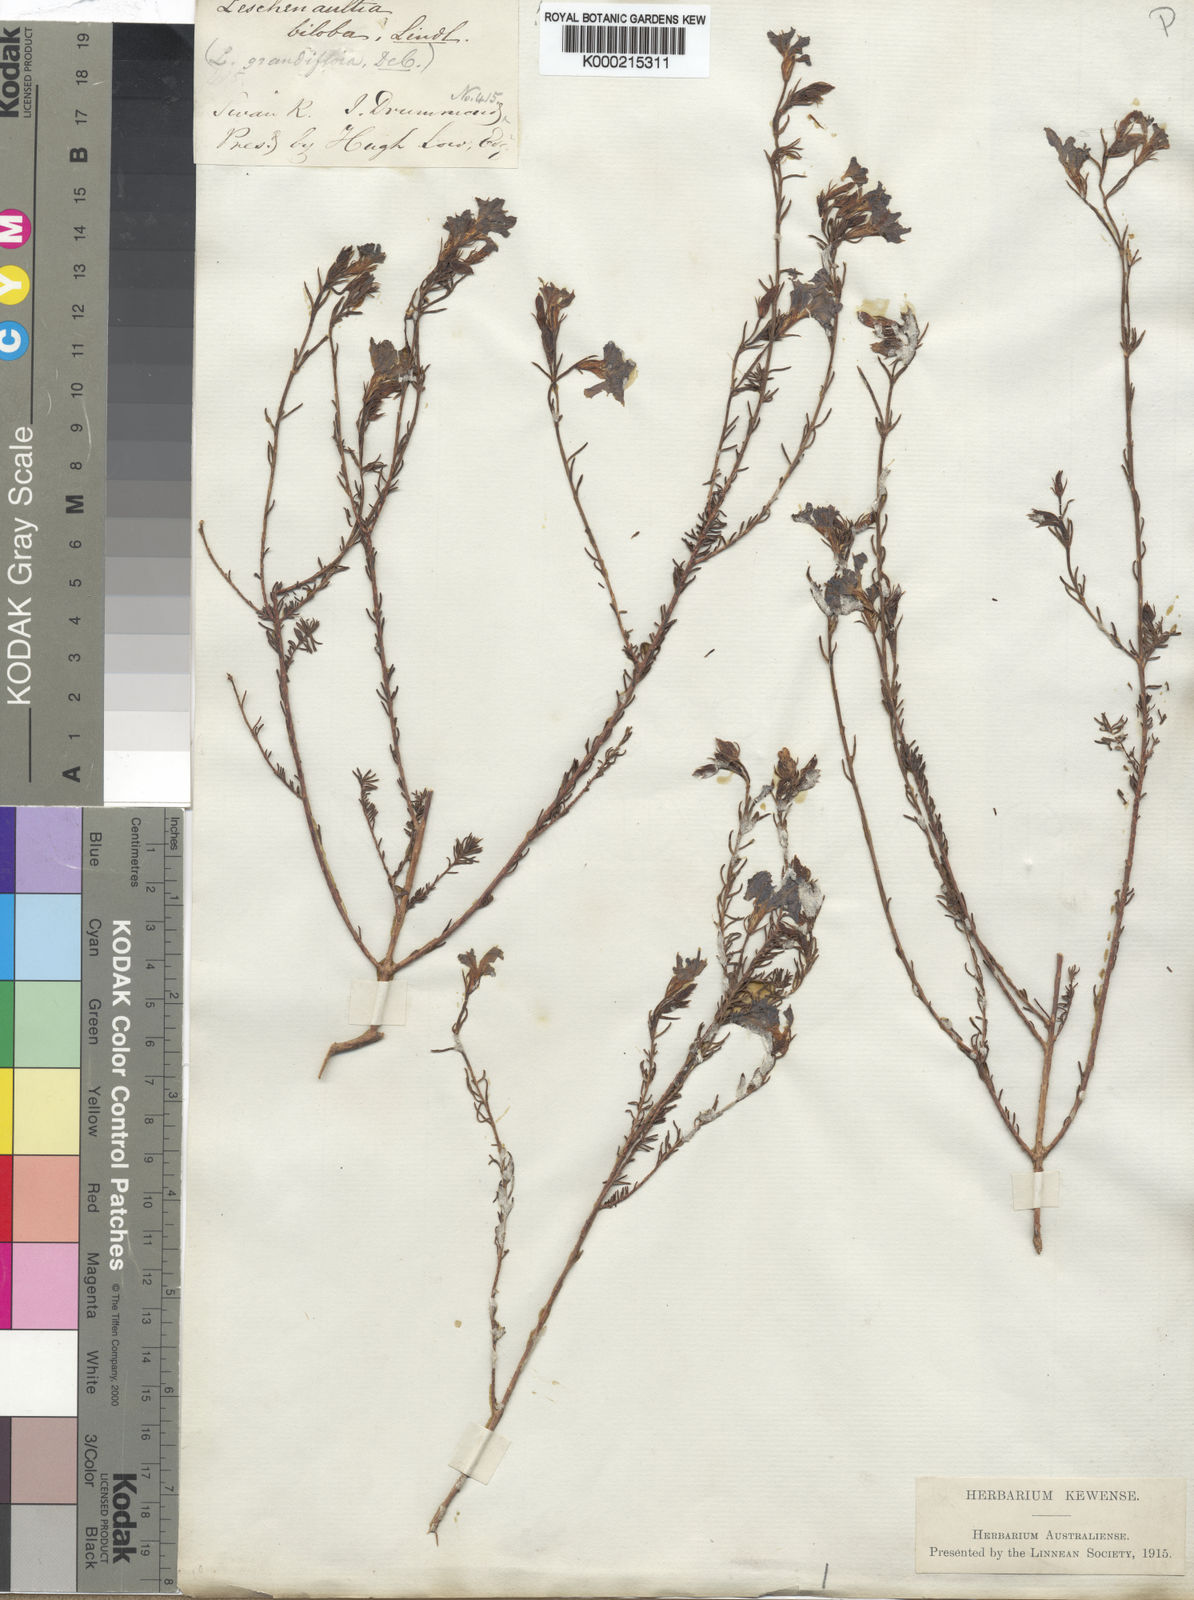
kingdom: Plantae
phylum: Tracheophyta
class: Magnoliopsida
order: Asterales
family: Goodeniaceae
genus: Leschenaultia
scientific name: Leschenaultia biloba
